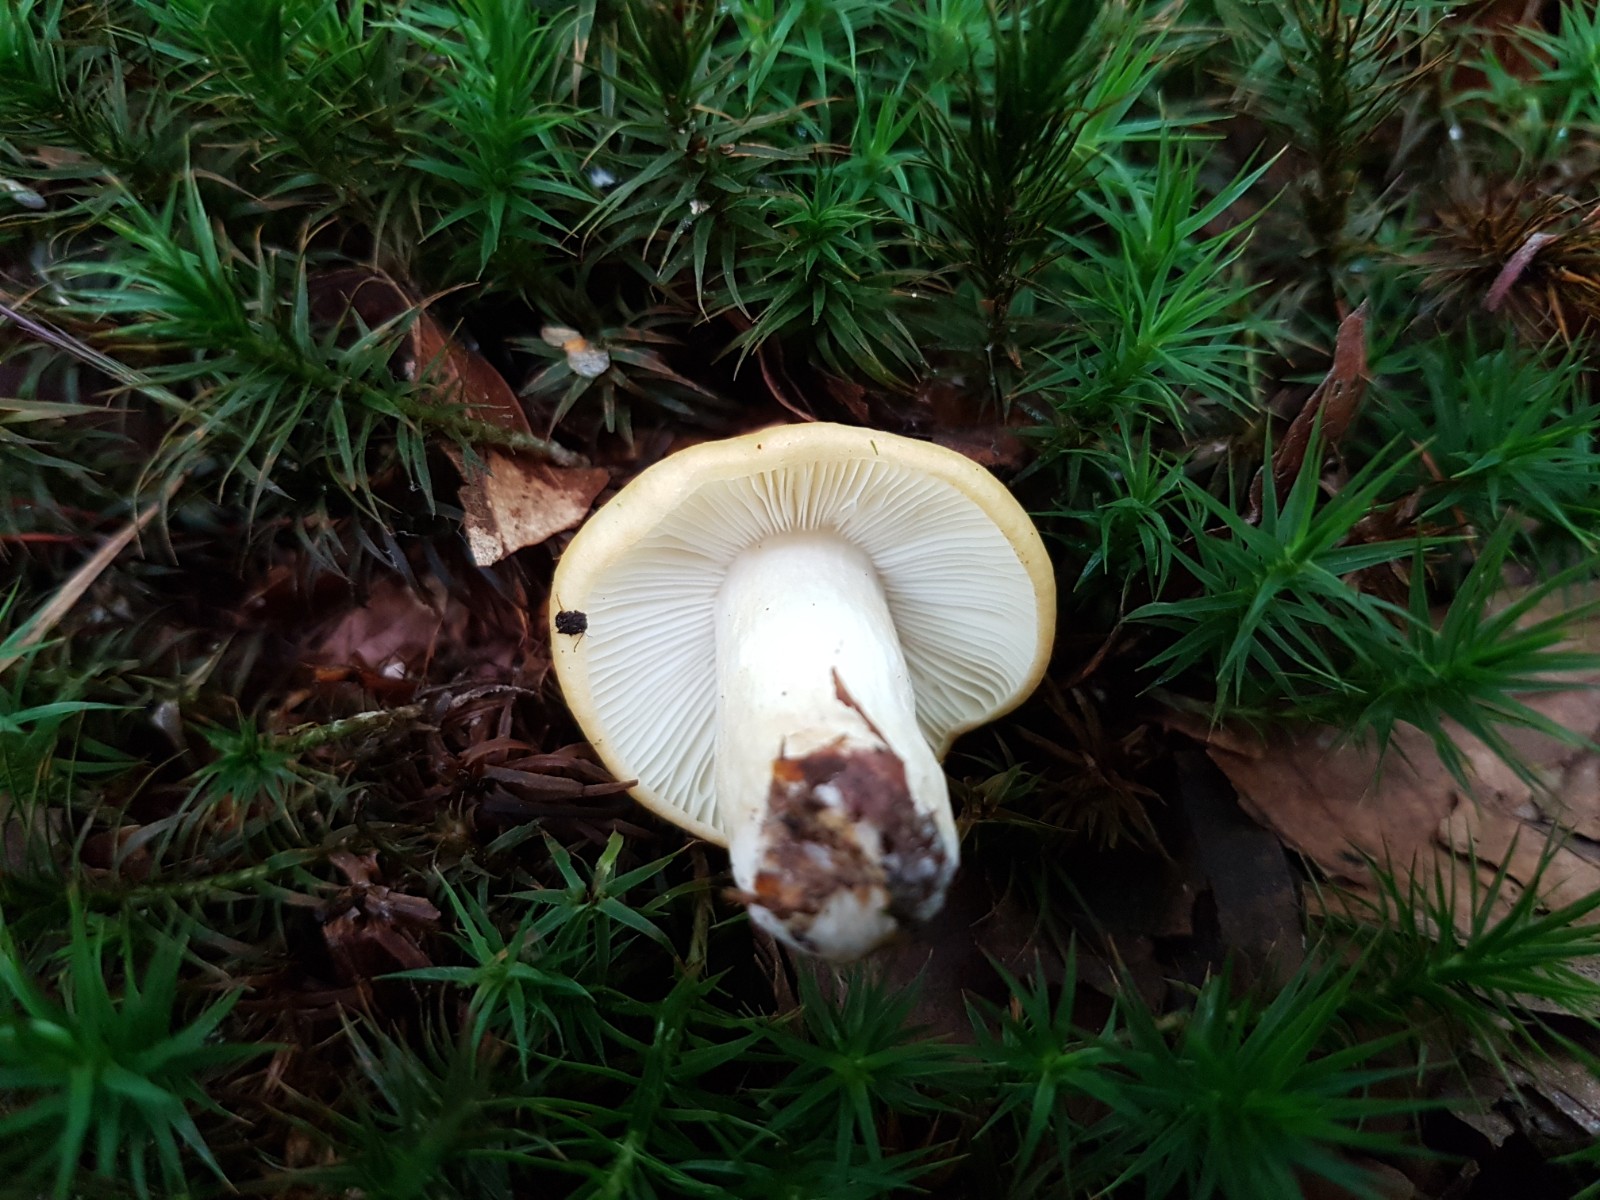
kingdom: Fungi
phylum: Basidiomycota
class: Agaricomycetes
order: Russulales
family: Russulaceae
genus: Russula
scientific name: Russula ochroleuca
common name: okkergul skørhat
